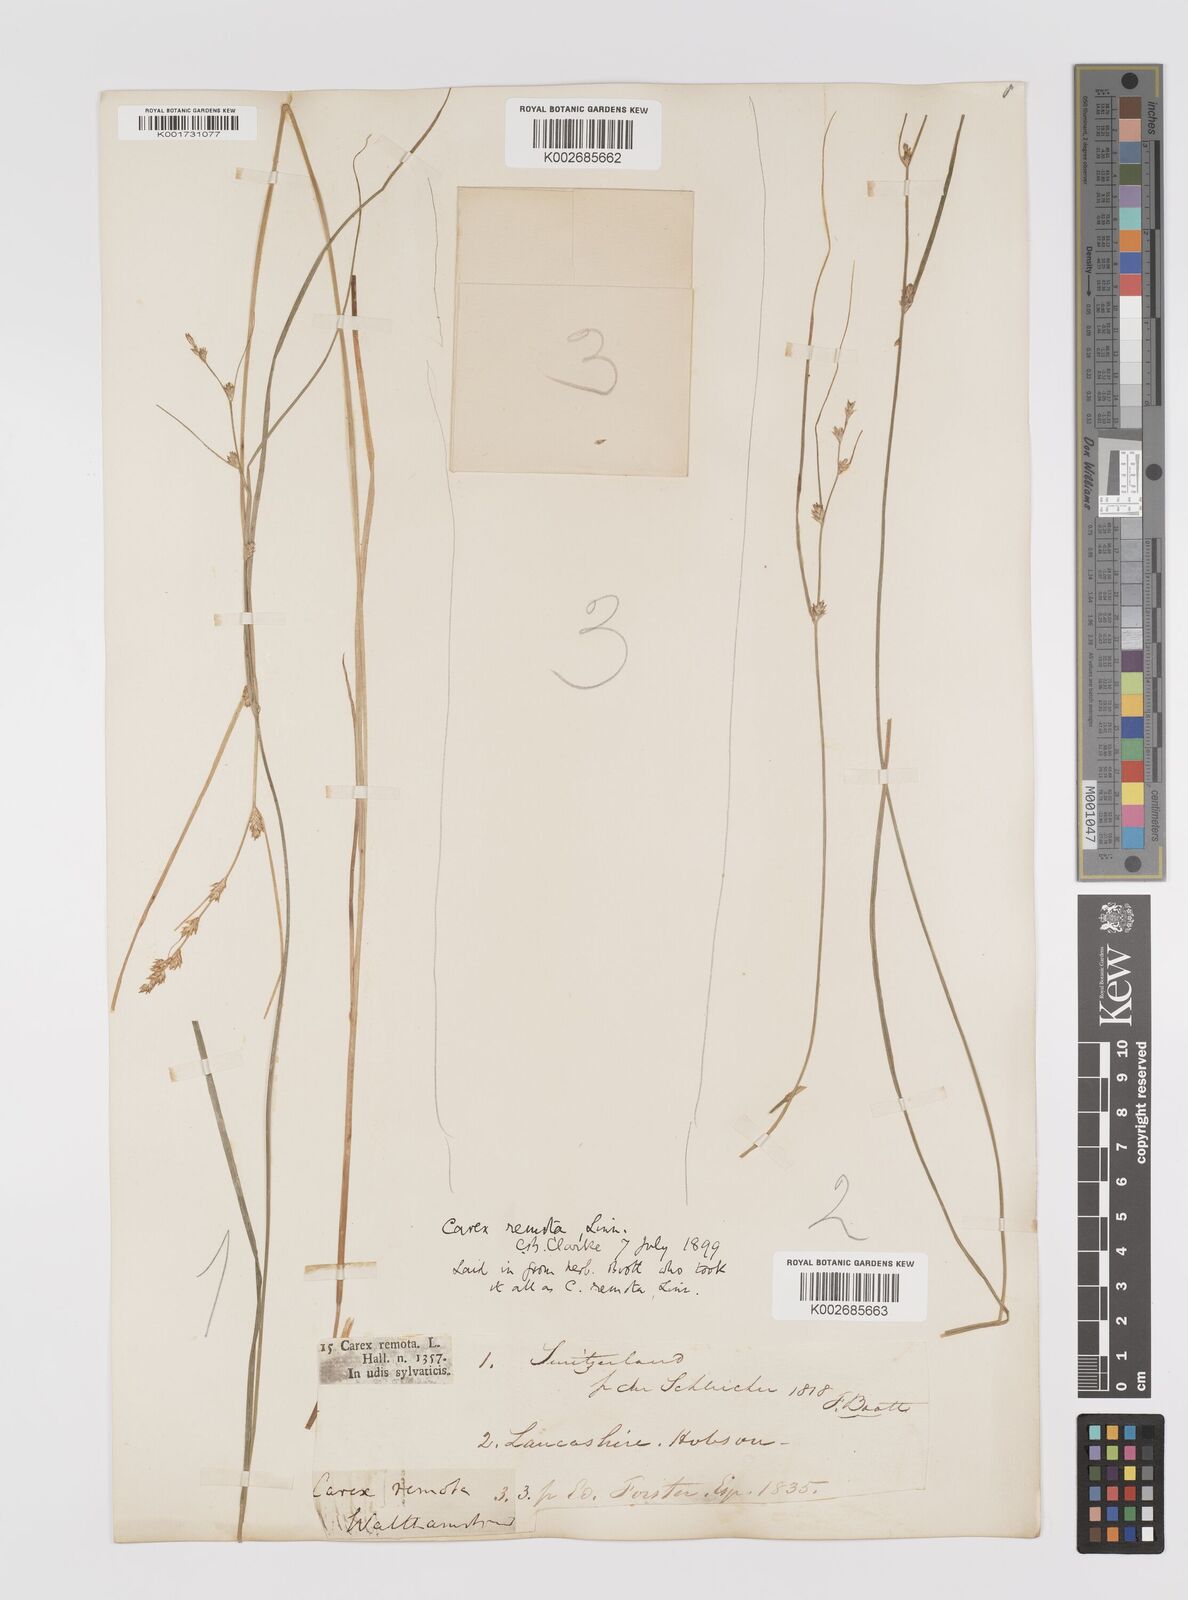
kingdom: Plantae
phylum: Tracheophyta
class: Liliopsida
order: Poales
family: Cyperaceae
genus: Carex
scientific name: Carex remota
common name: Remote sedge
